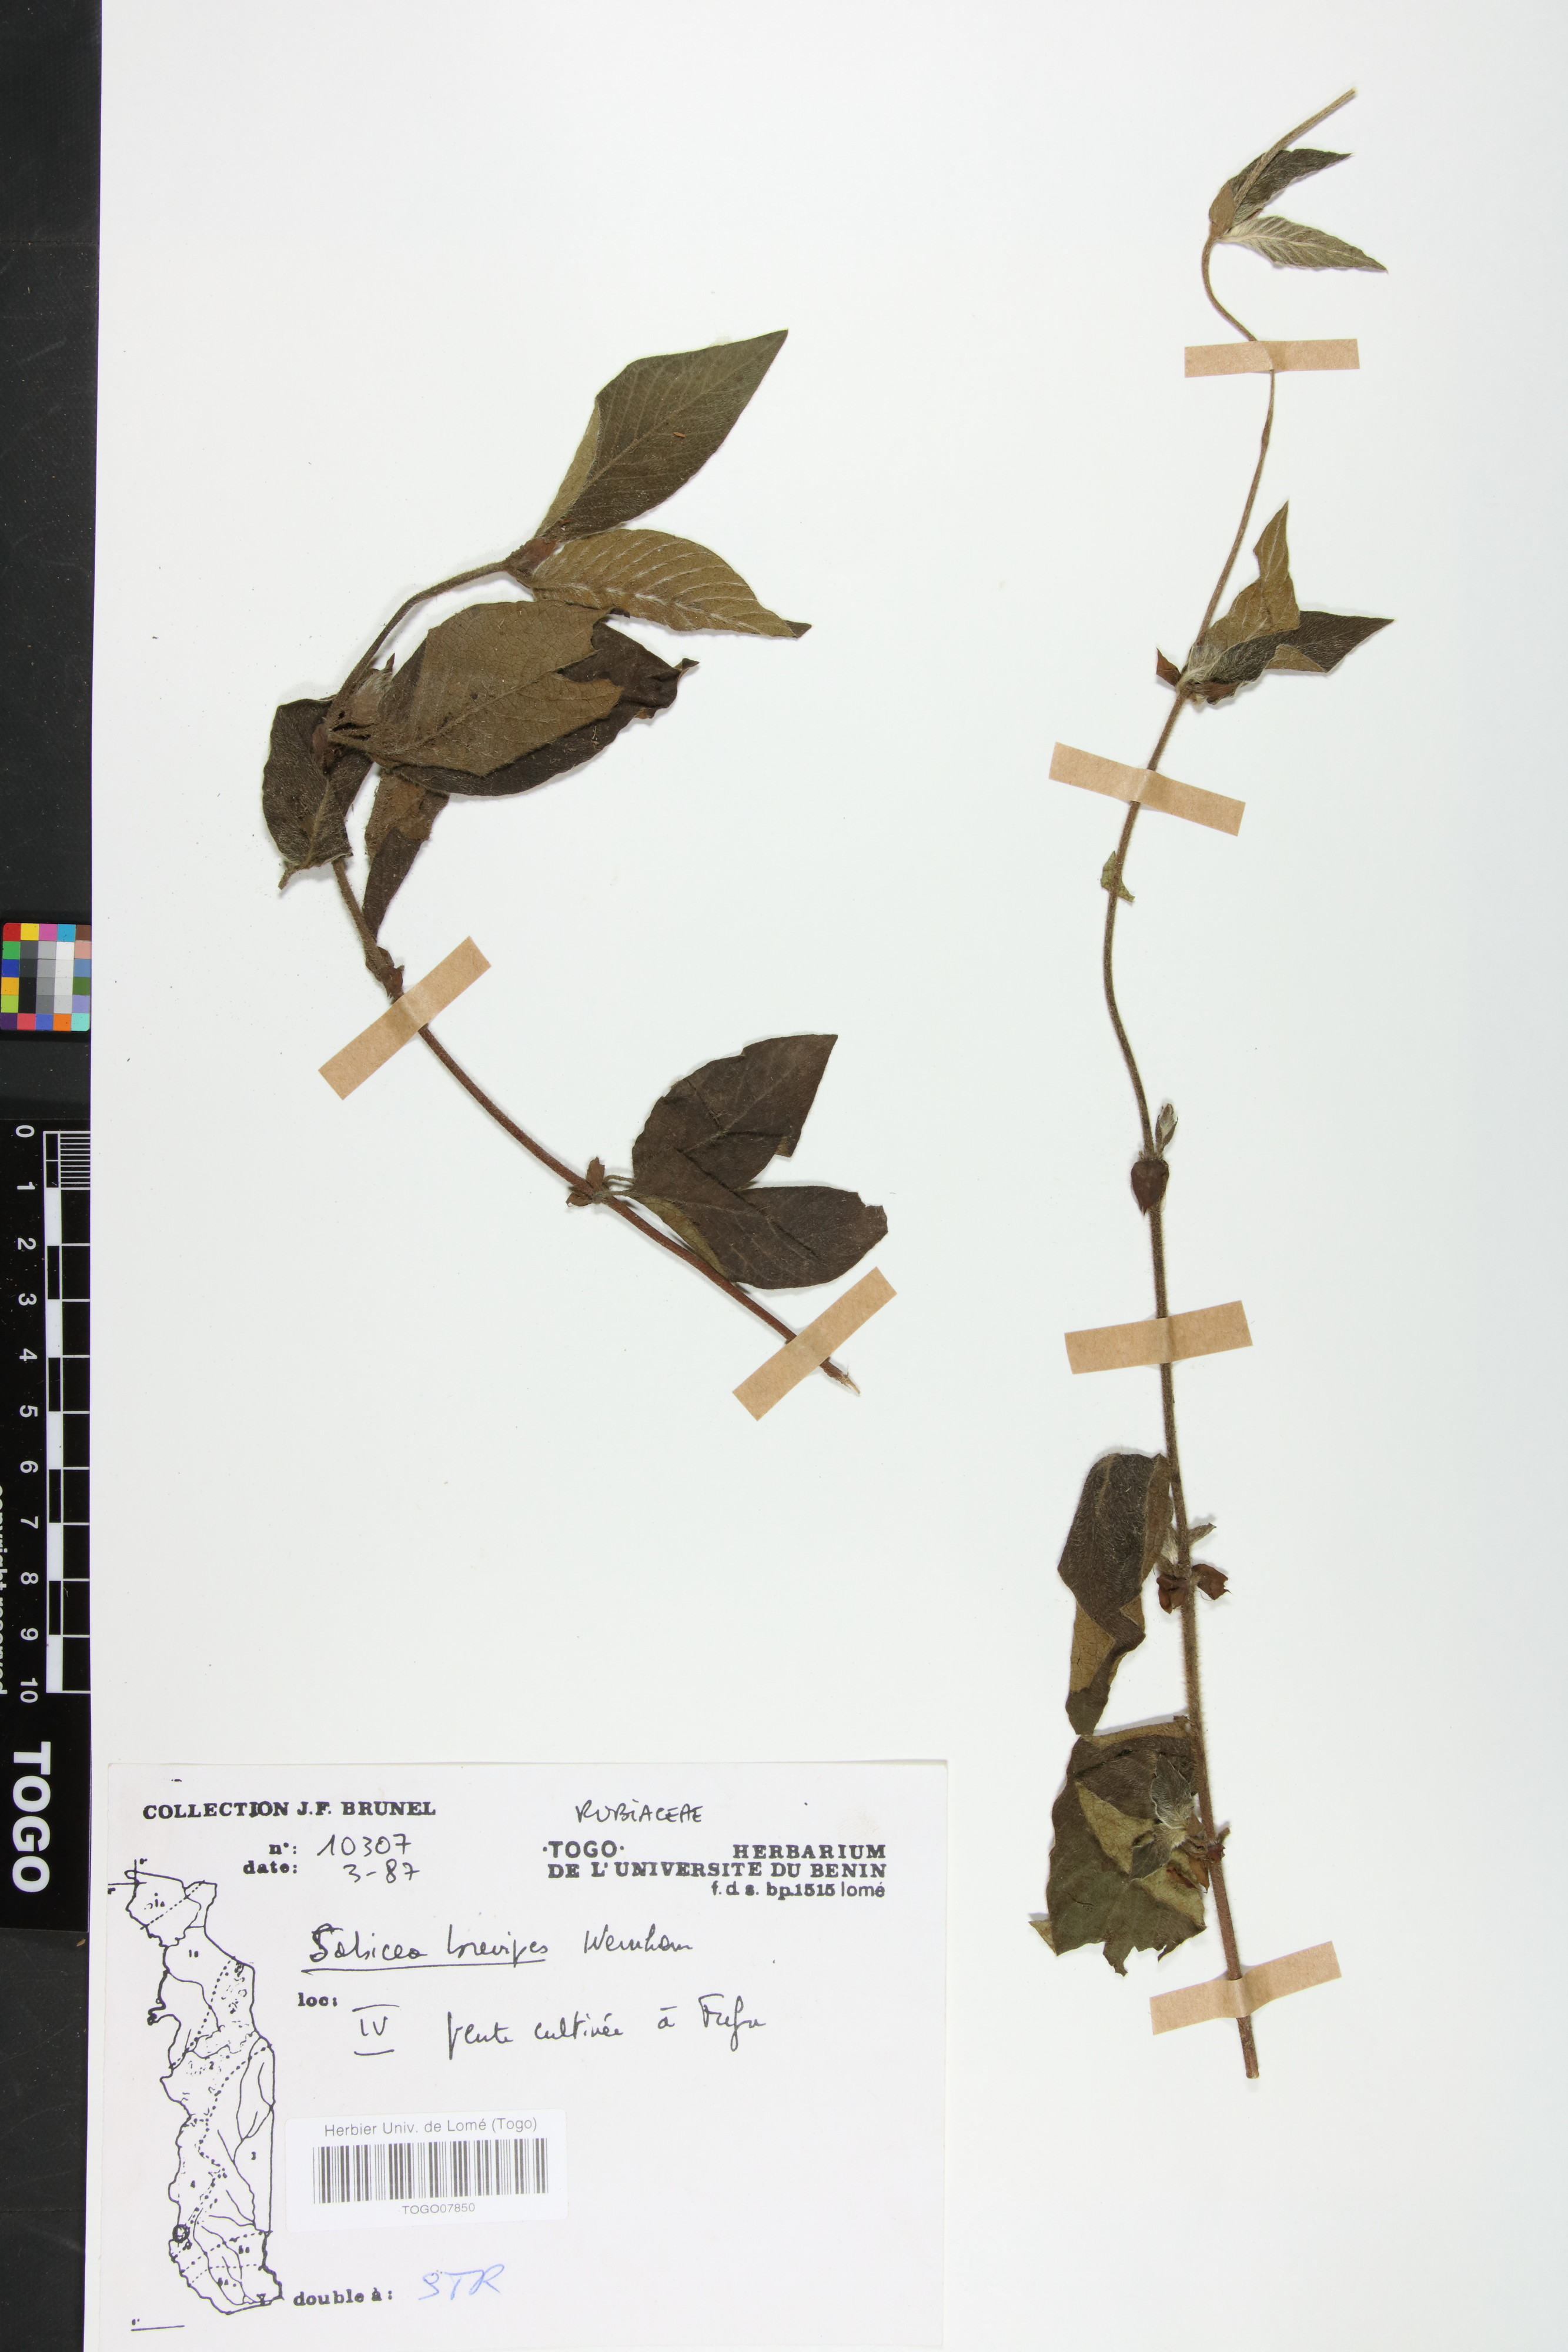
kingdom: Plantae
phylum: Tracheophyta
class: Magnoliopsida
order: Gentianales
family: Rubiaceae
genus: Sabicea
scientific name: Sabicea brevipes
